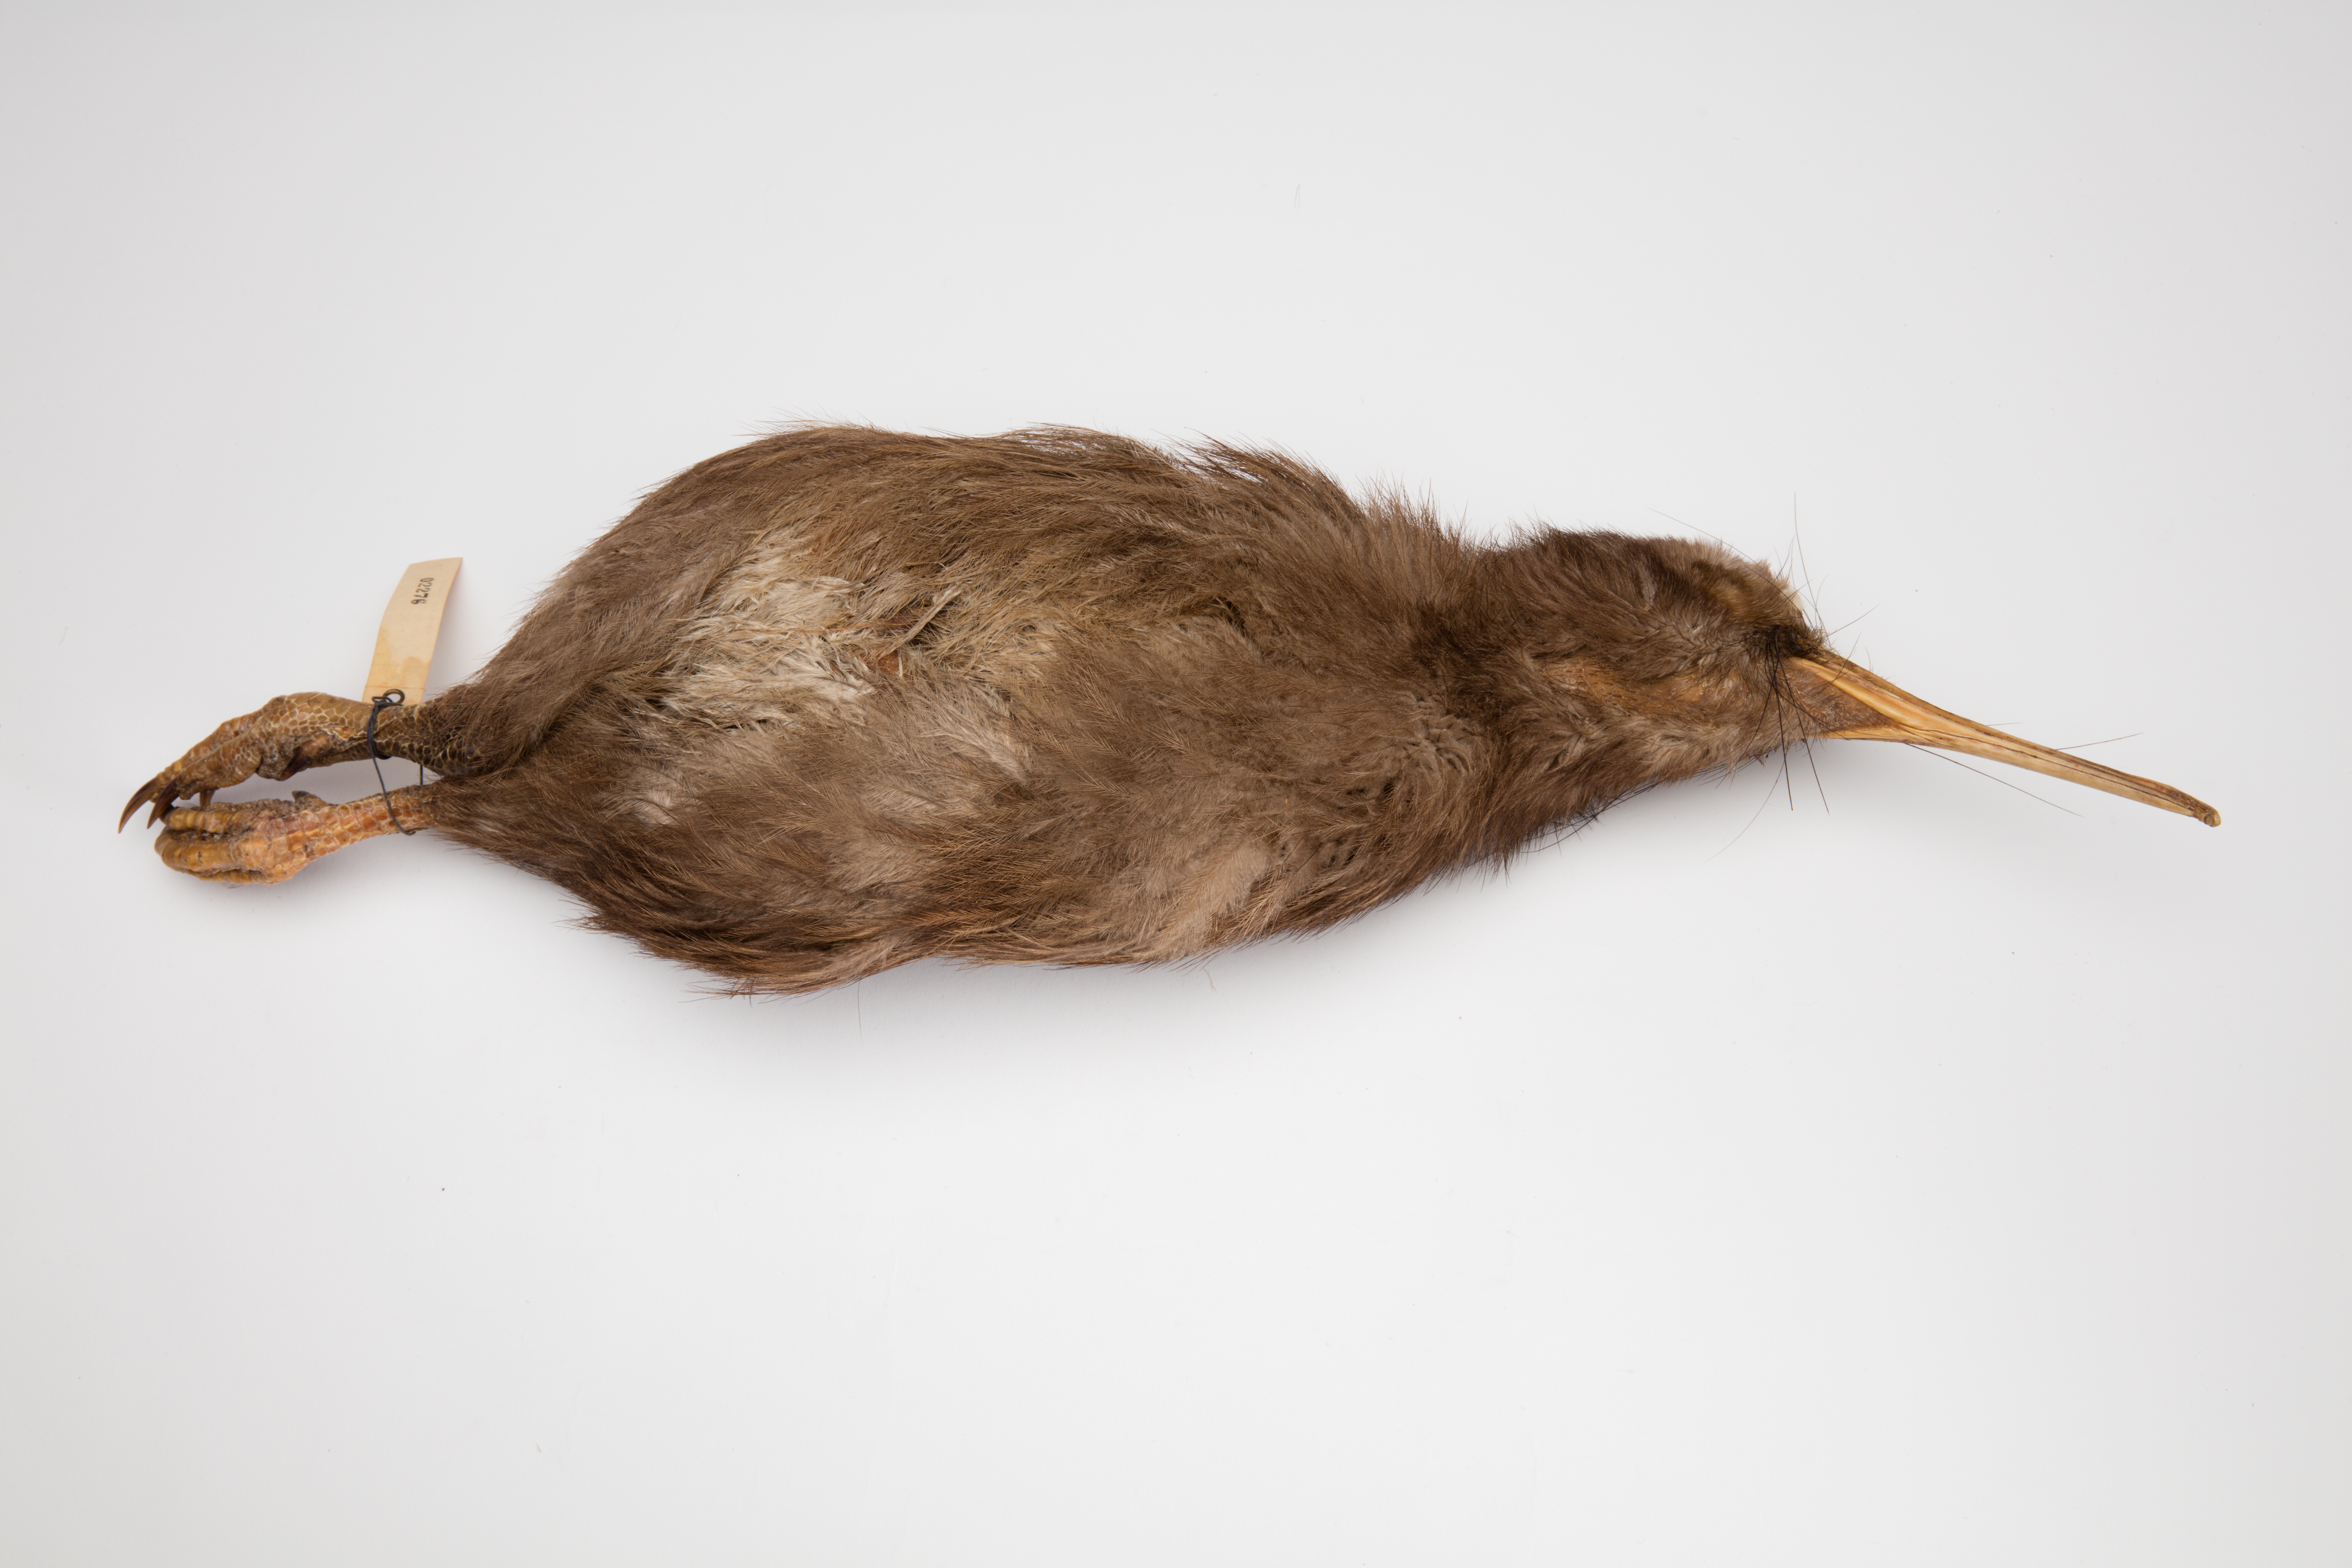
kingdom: Animalia
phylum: Chordata
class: Aves
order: Apterygiformes
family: Apterygidae
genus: Apteryx
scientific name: Apteryx mantelli
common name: North island brown kiwi
